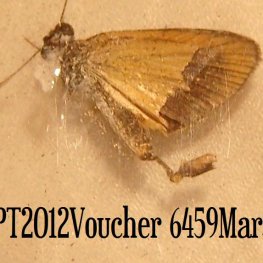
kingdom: Animalia
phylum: Arthropoda
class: Insecta
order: Lepidoptera
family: Hesperiidae
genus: Ancyloxypha
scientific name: Ancyloxypha numitor
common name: Least Skipper
